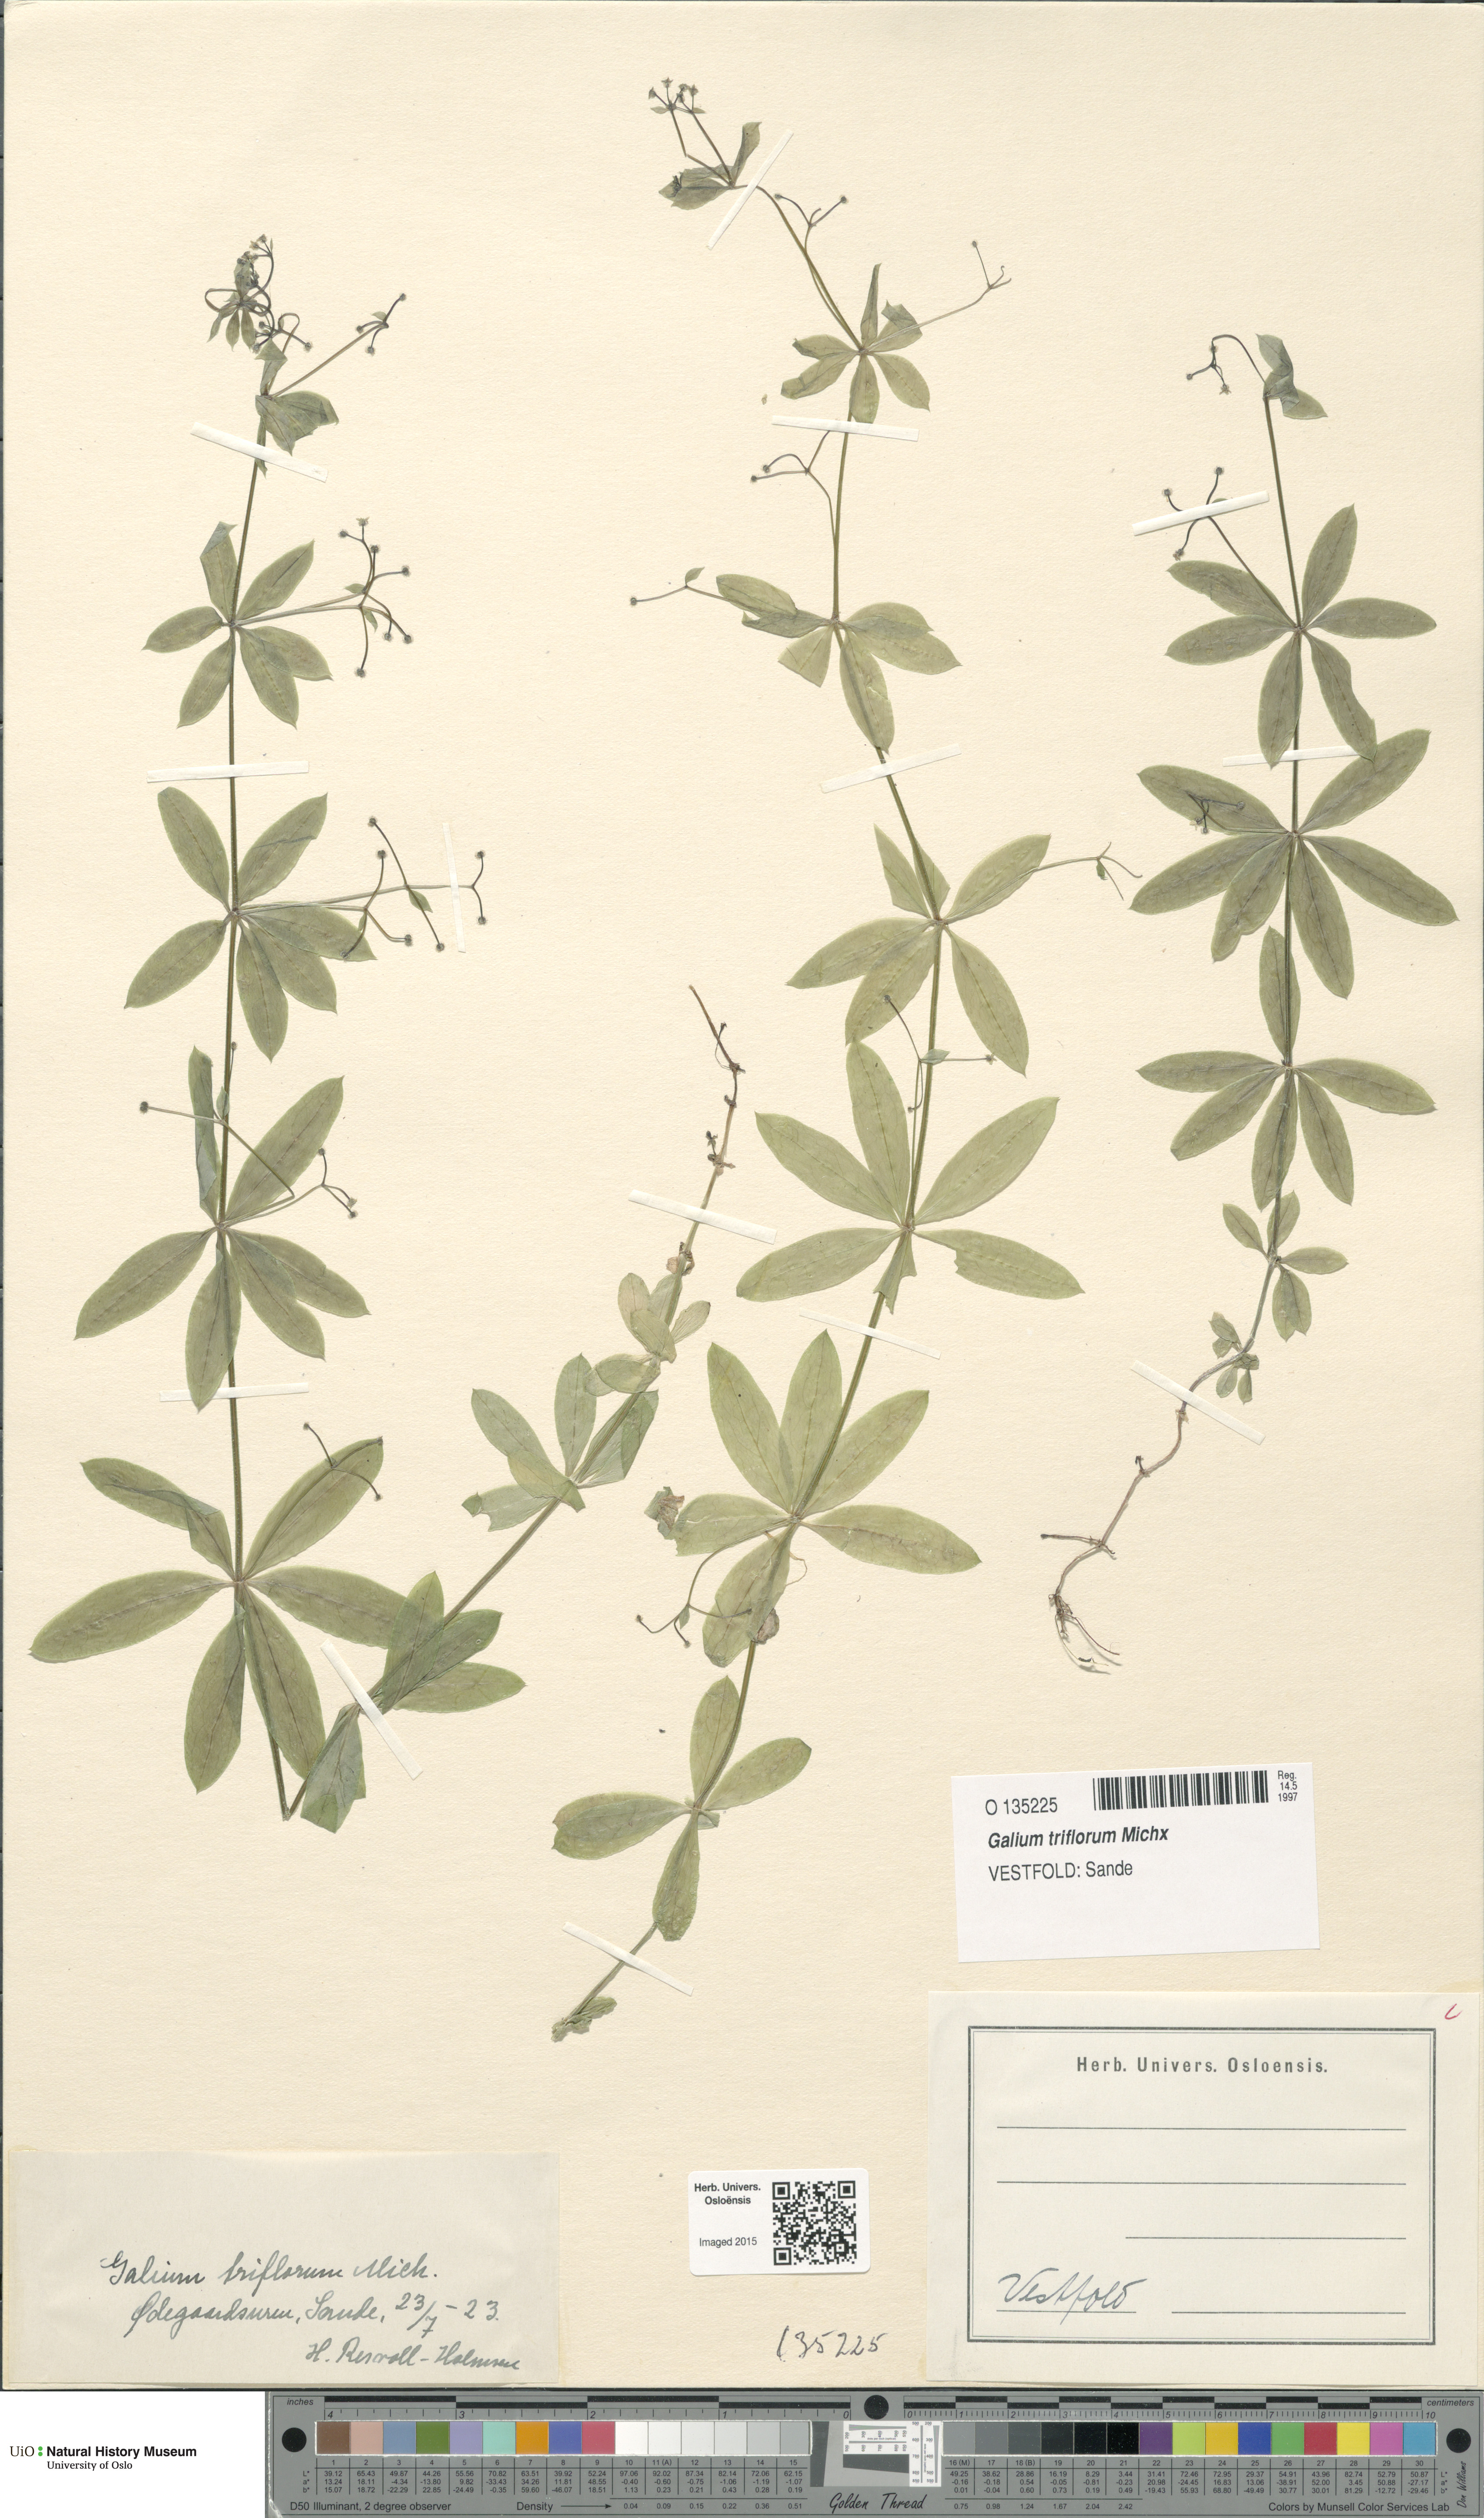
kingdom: Plantae
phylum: Tracheophyta
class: Magnoliopsida
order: Gentianales
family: Rubiaceae
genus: Galium
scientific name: Galium triflorum
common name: Fragrant bedstraw
